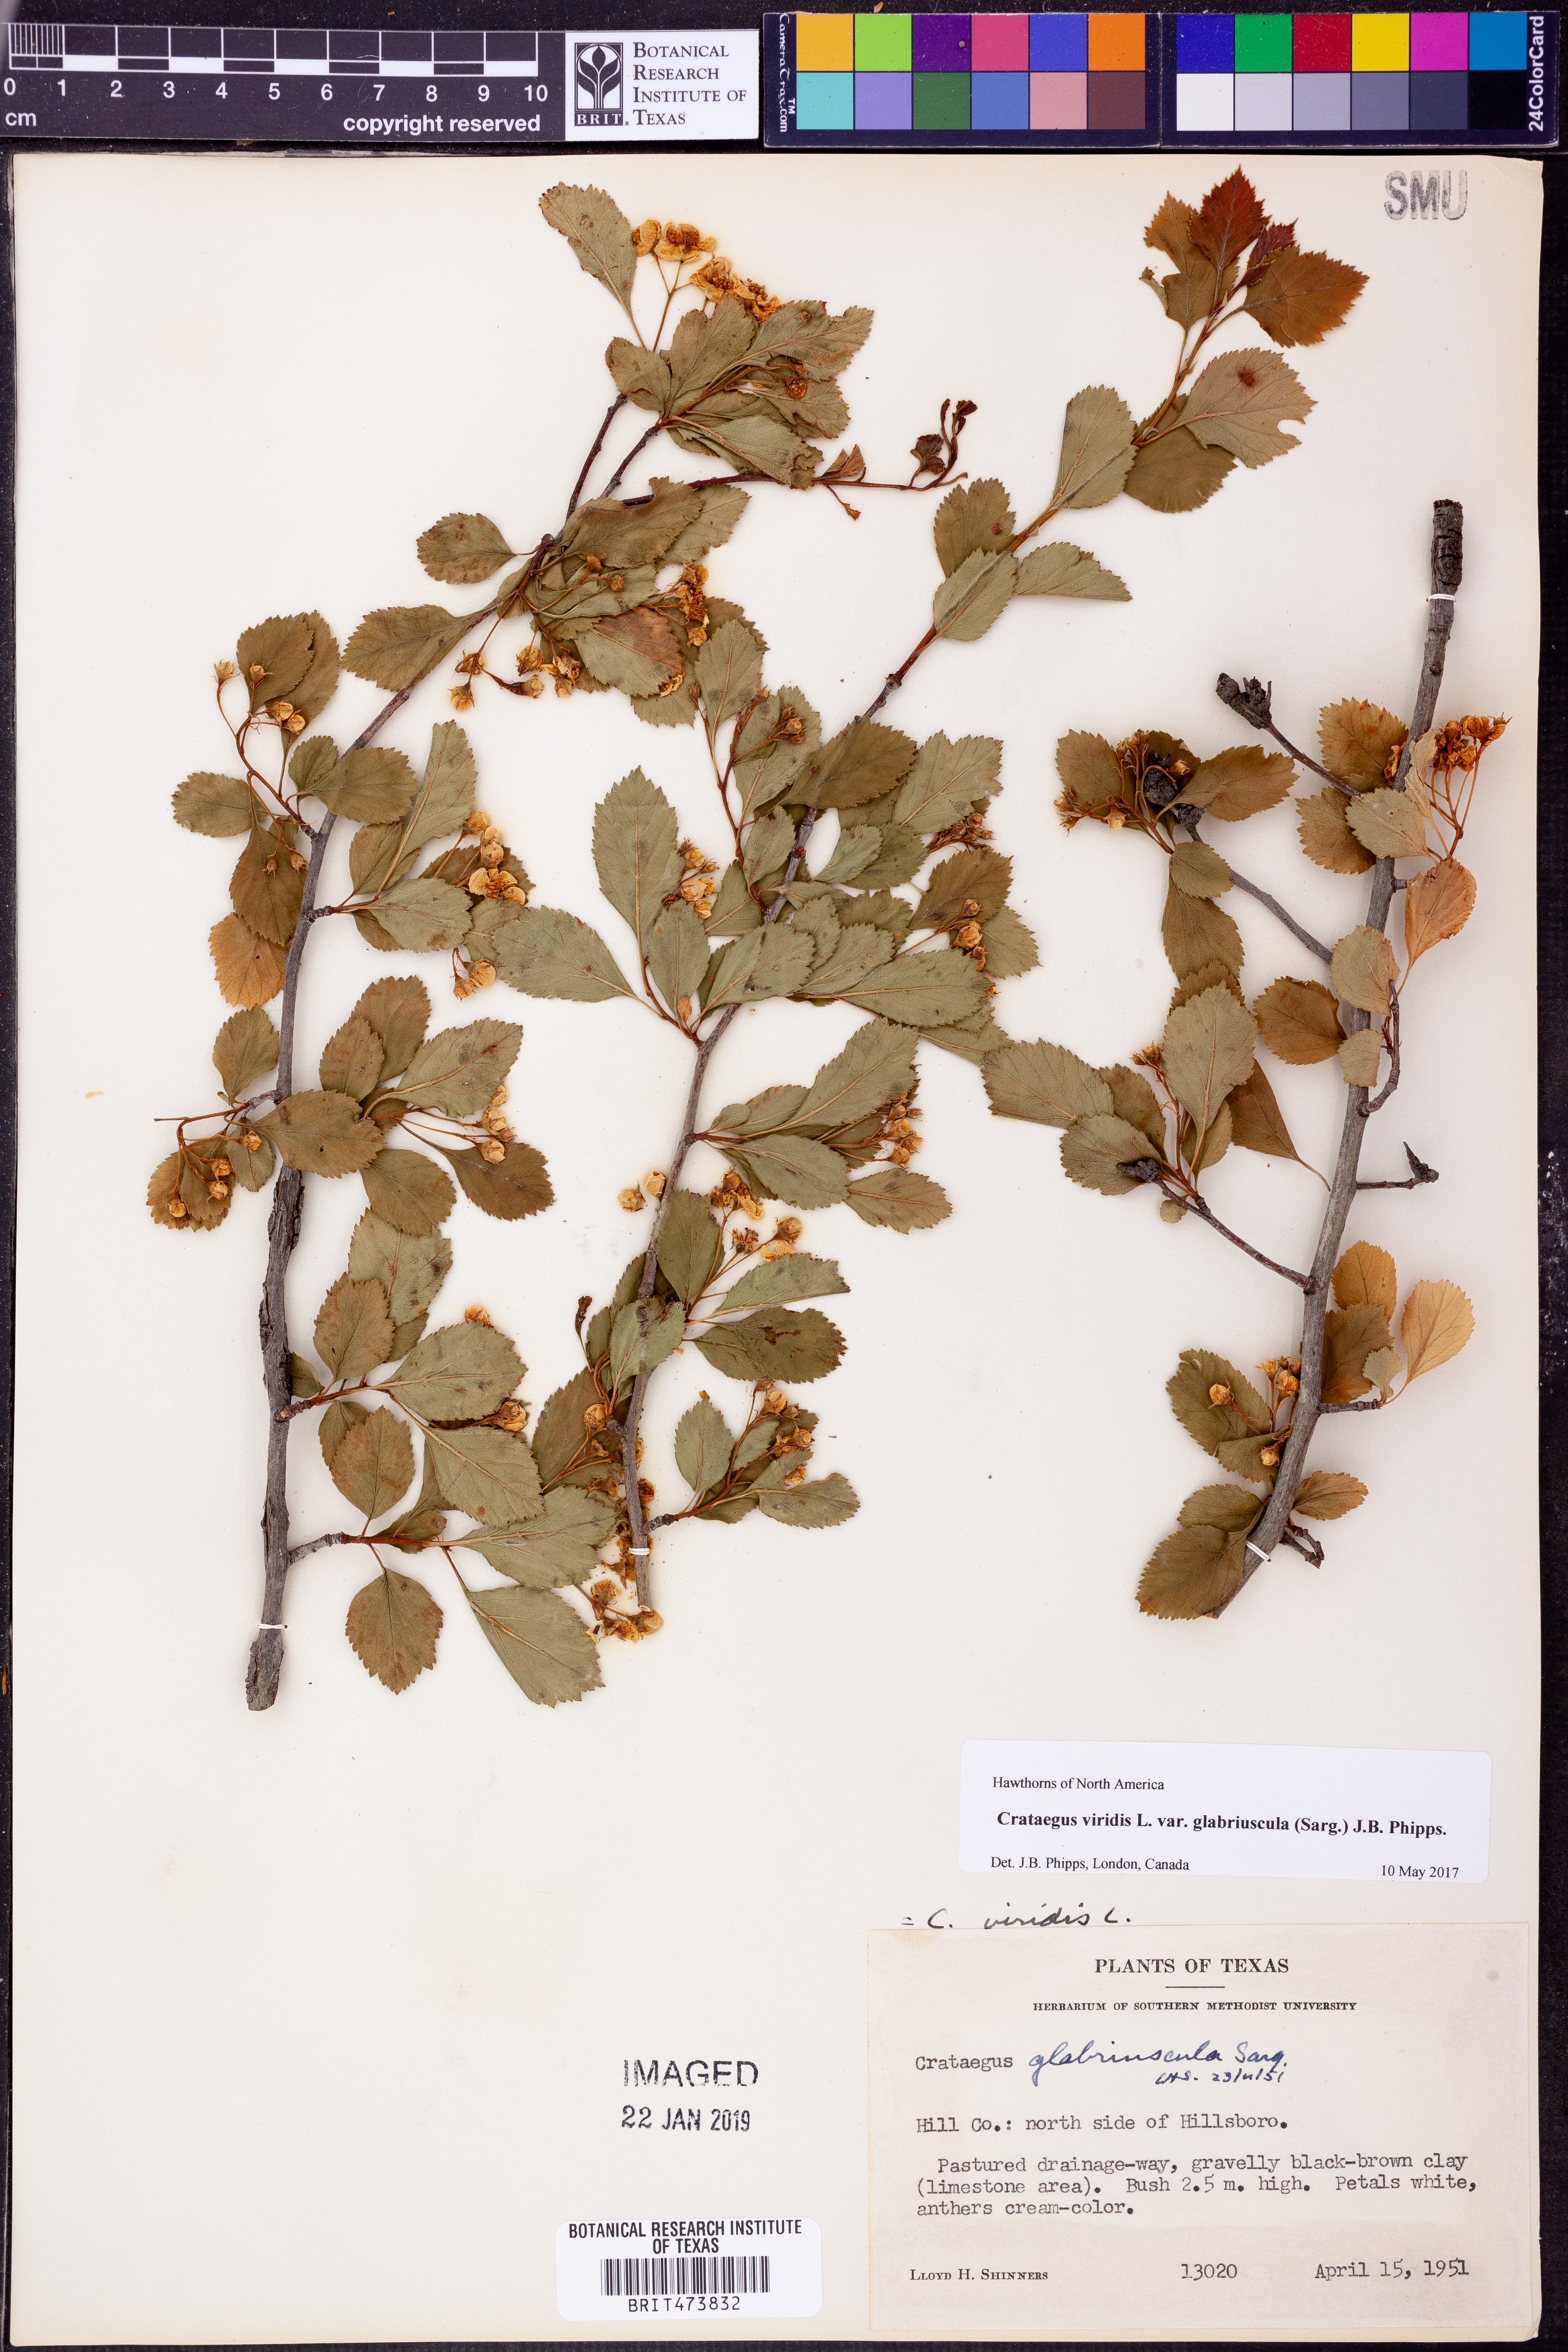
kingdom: Plantae
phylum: Tracheophyta
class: Magnoliopsida
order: Rosales
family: Rosaceae
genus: Crataegus
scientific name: Crataegus viridis
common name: Southernthorn
